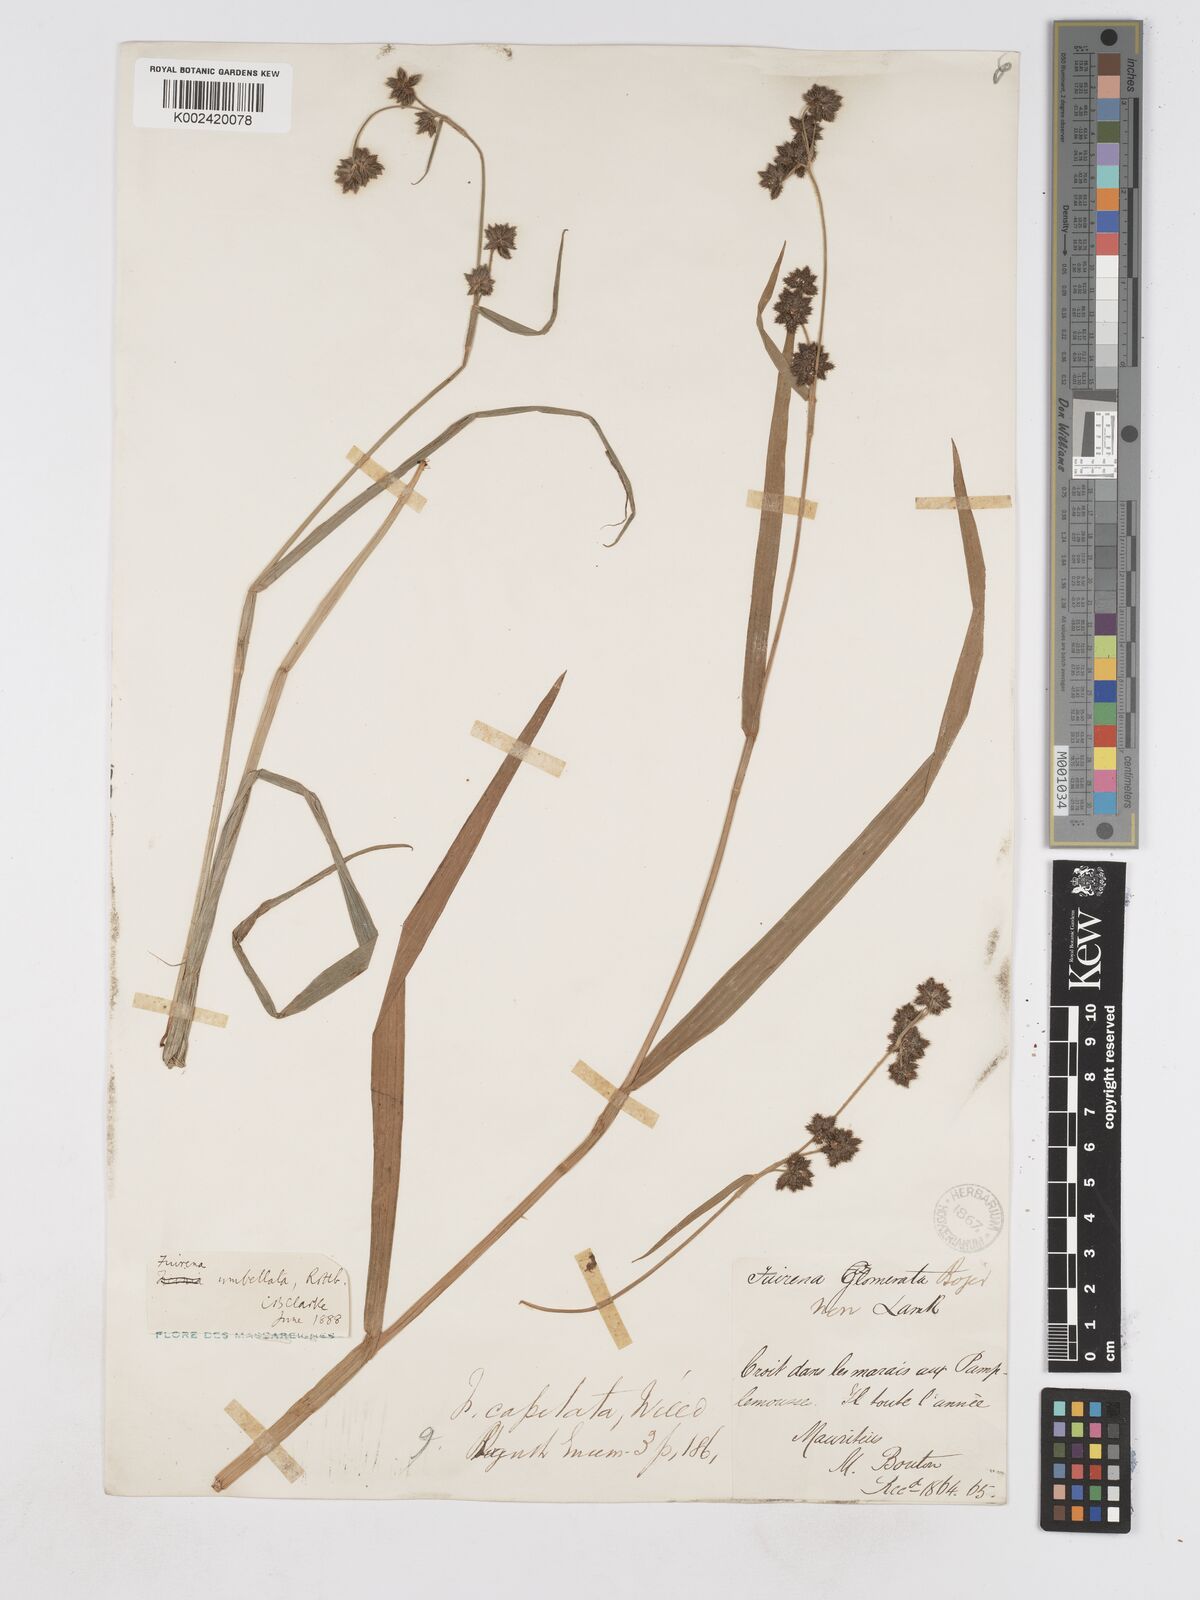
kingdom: Plantae
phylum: Tracheophyta
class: Liliopsida
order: Poales
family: Cyperaceae
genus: Fuirena
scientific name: Fuirena umbellata
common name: Yefen
